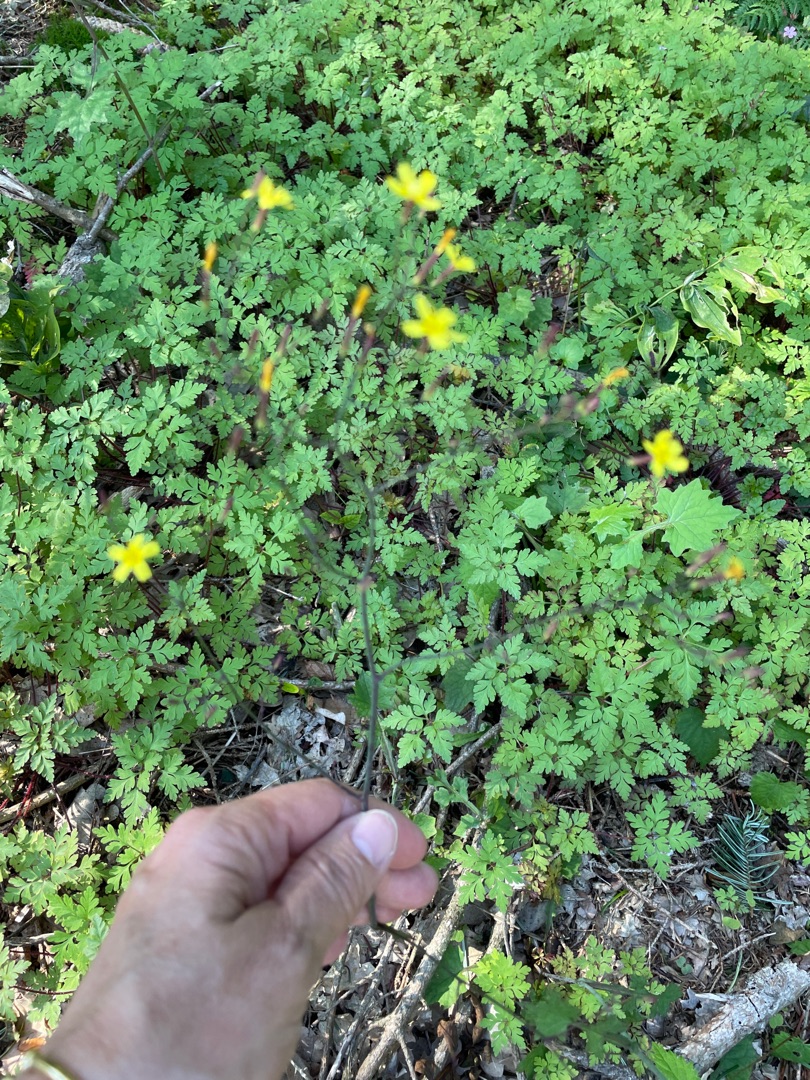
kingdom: Plantae
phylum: Tracheophyta
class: Magnoliopsida
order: Asterales
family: Asteraceae
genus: Mycelis
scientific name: Mycelis muralis
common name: Skov-salat
